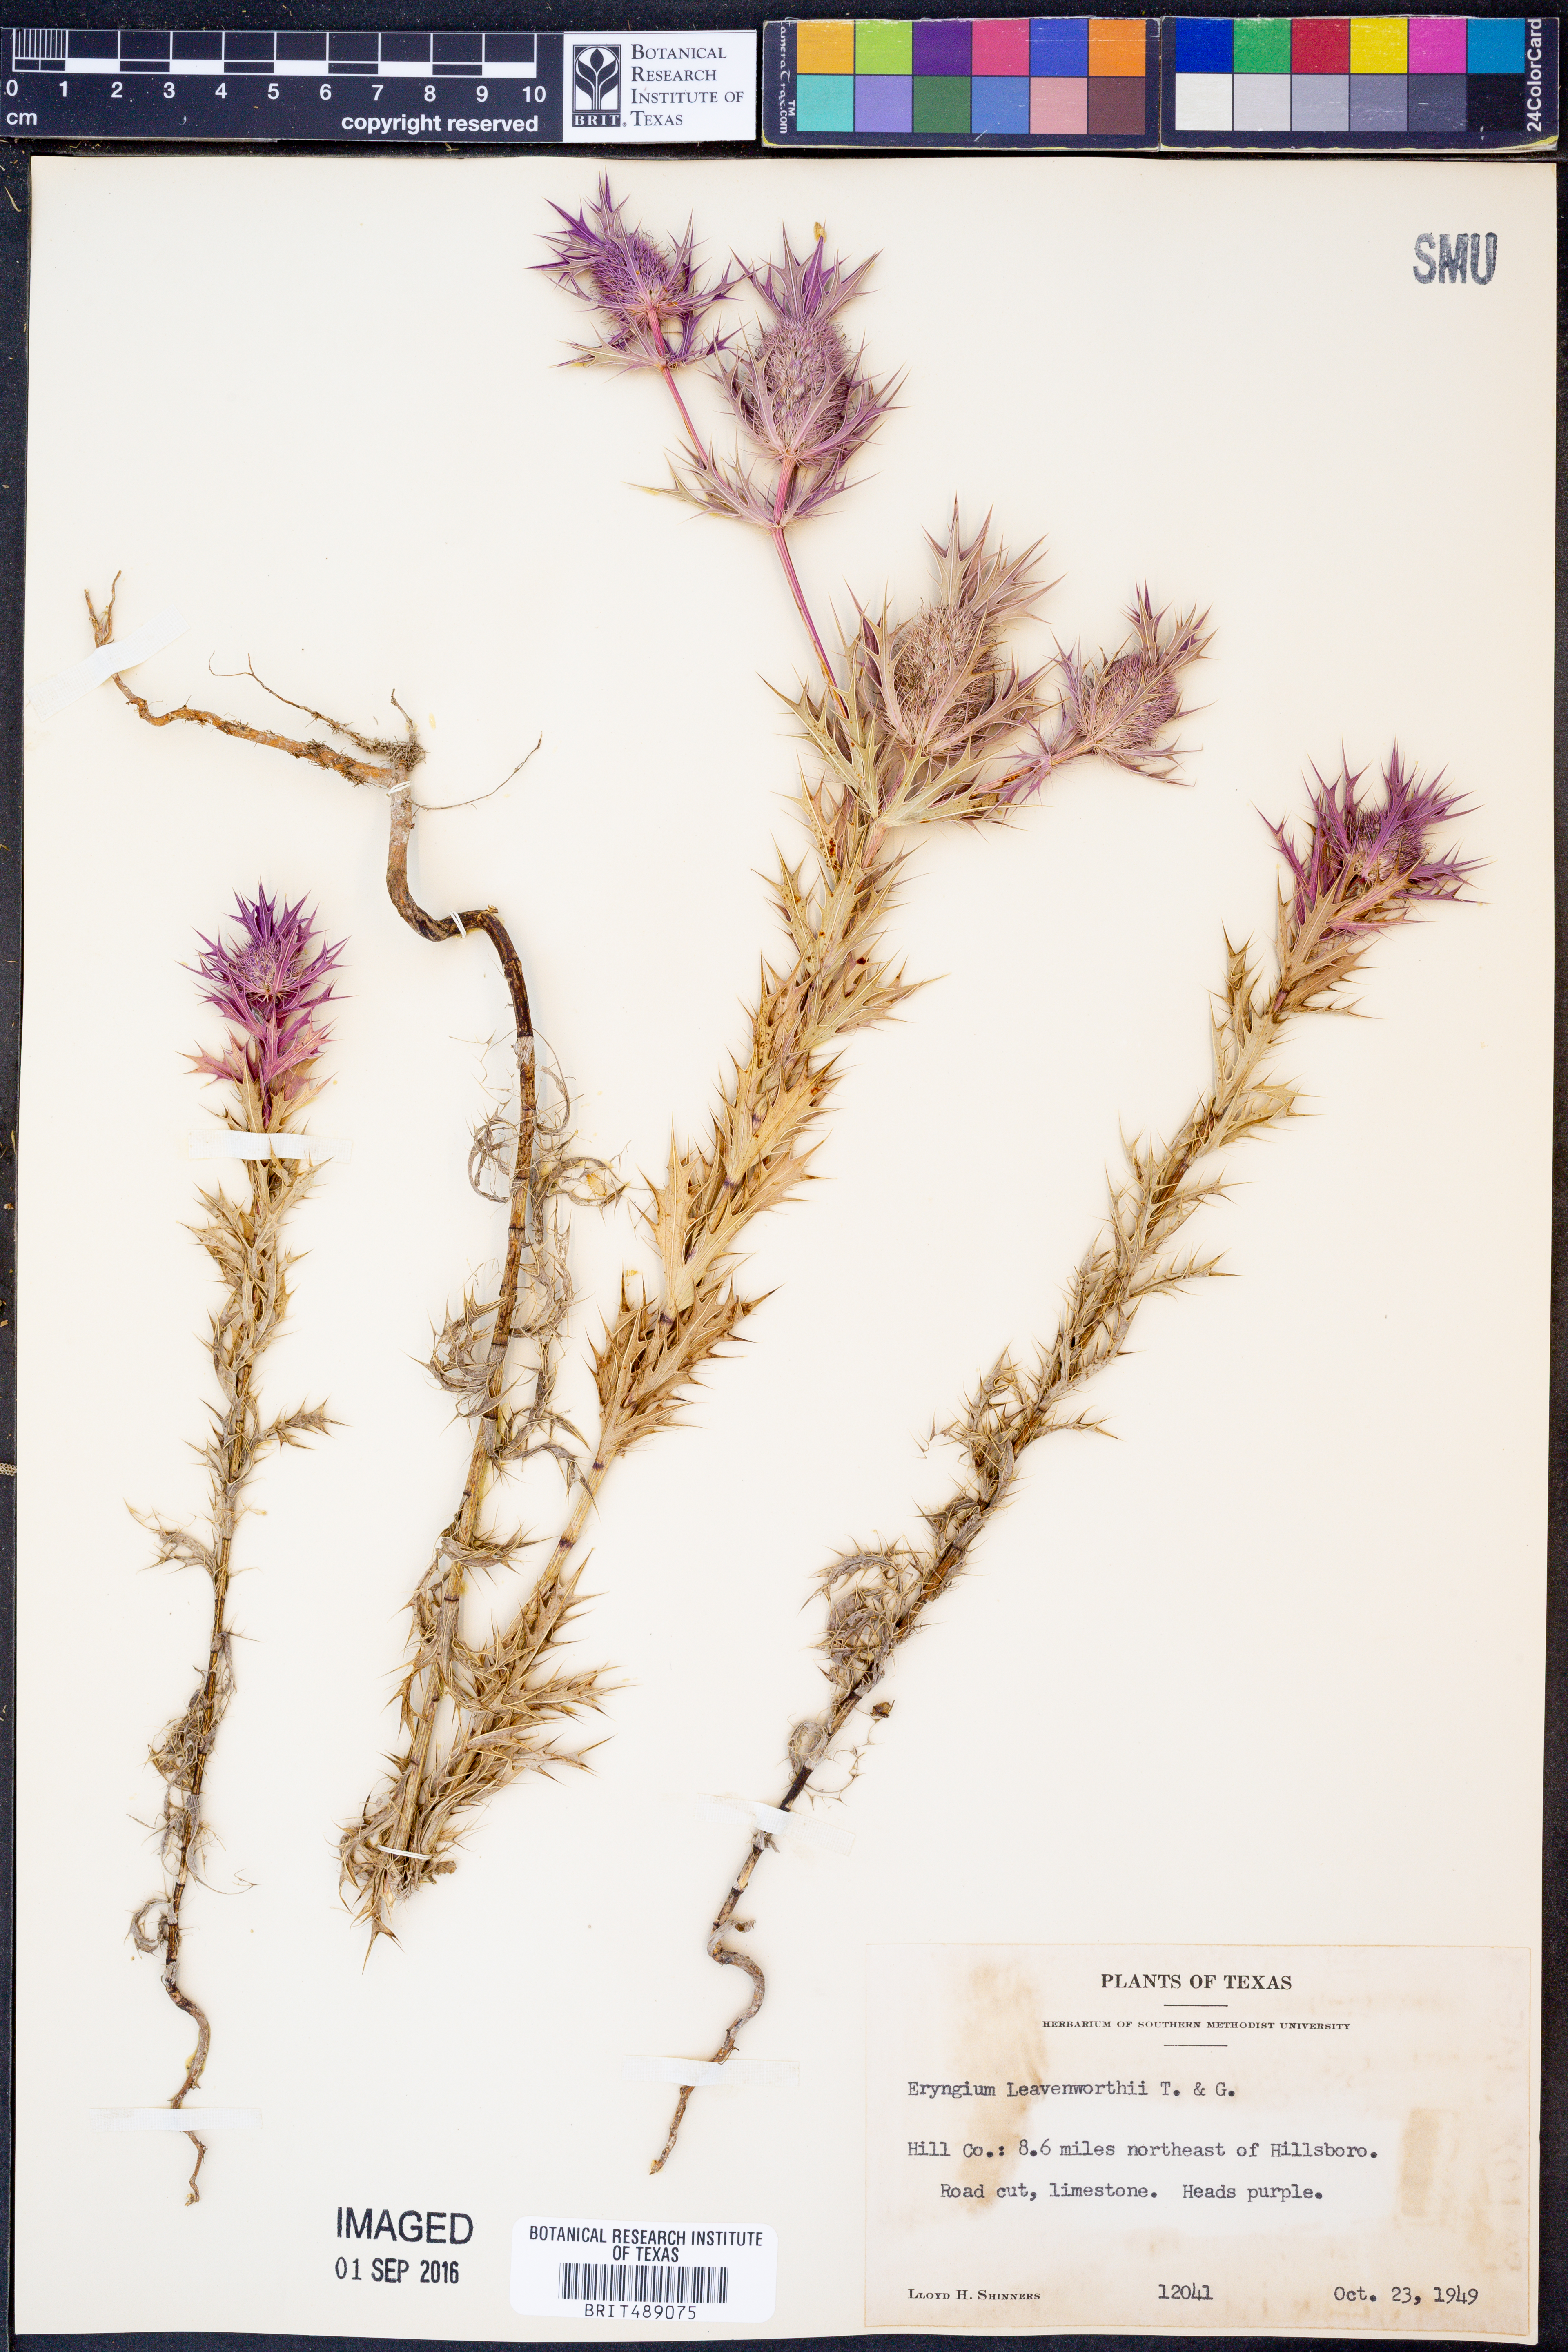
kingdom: Plantae
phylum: Tracheophyta
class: Magnoliopsida
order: Apiales
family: Apiaceae
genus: Eryngium
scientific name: Eryngium leavenworthii
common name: Leavenworth's eryngo
